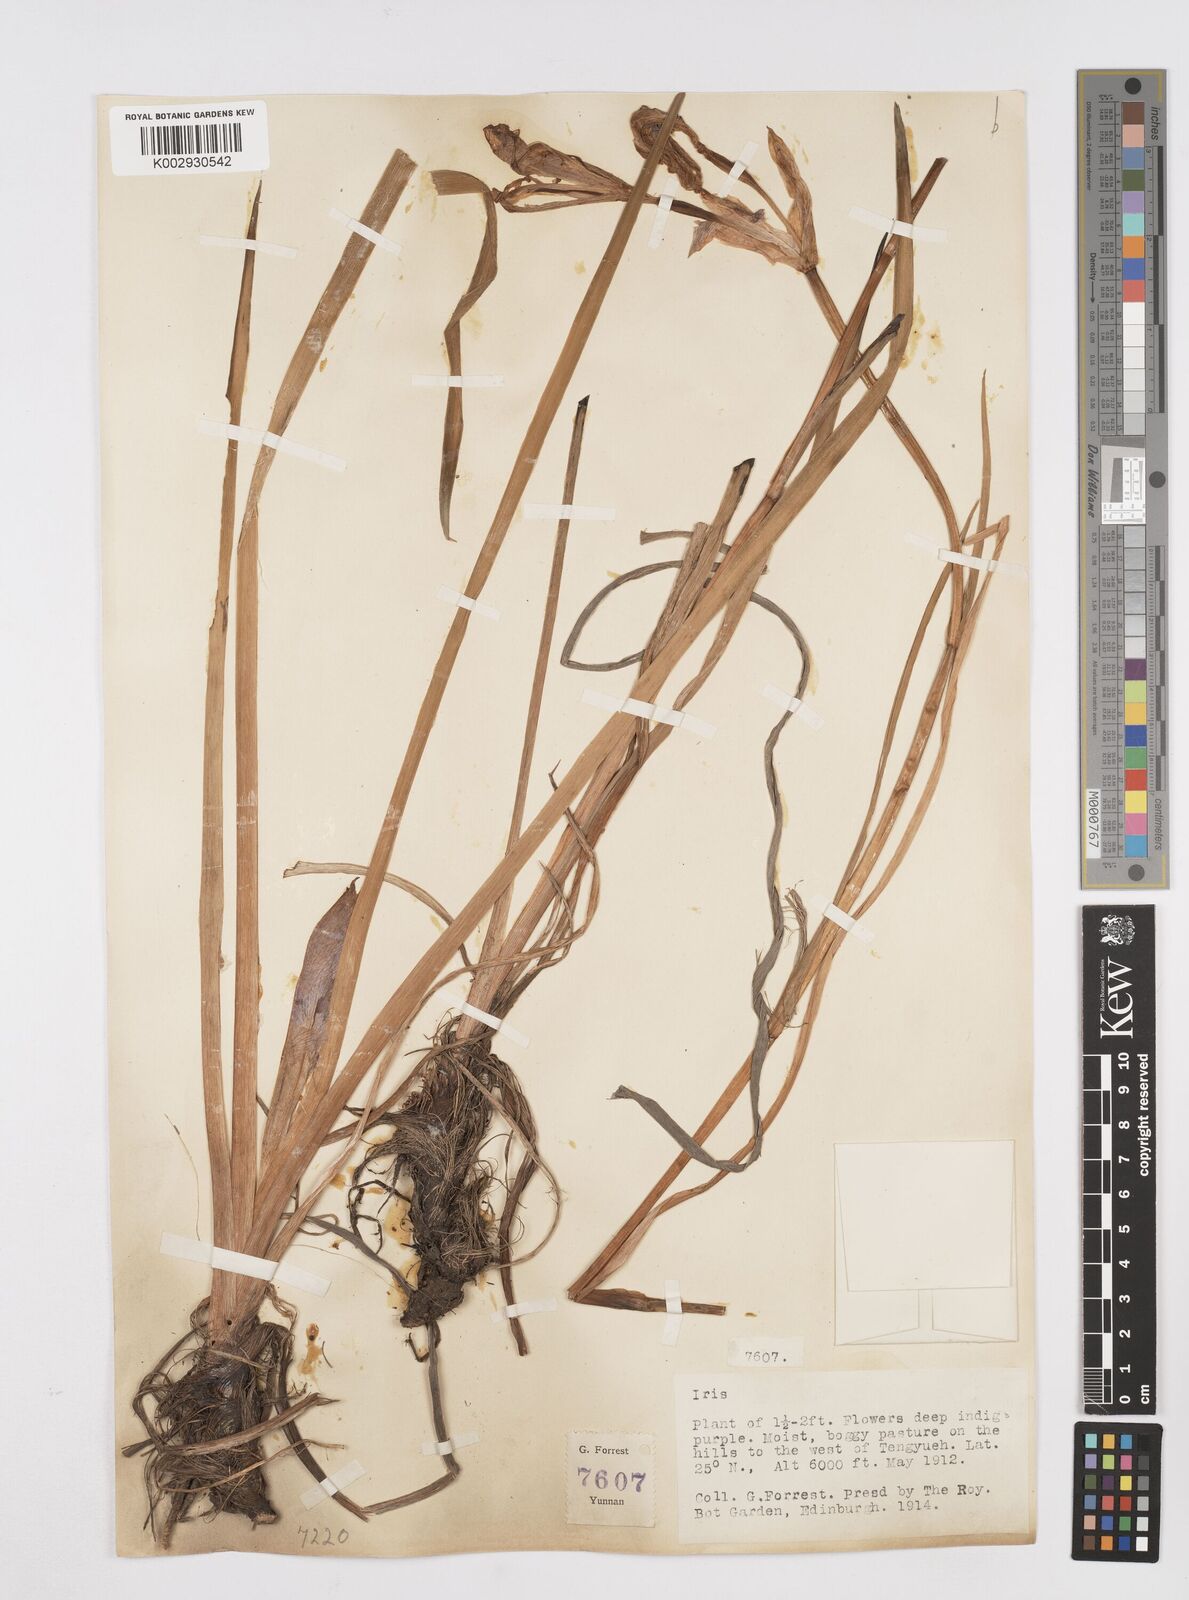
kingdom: Plantae
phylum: Tracheophyta
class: Liliopsida
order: Asparagales
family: Iridaceae
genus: Iris
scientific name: Iris bulleyana
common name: Southwest iris
